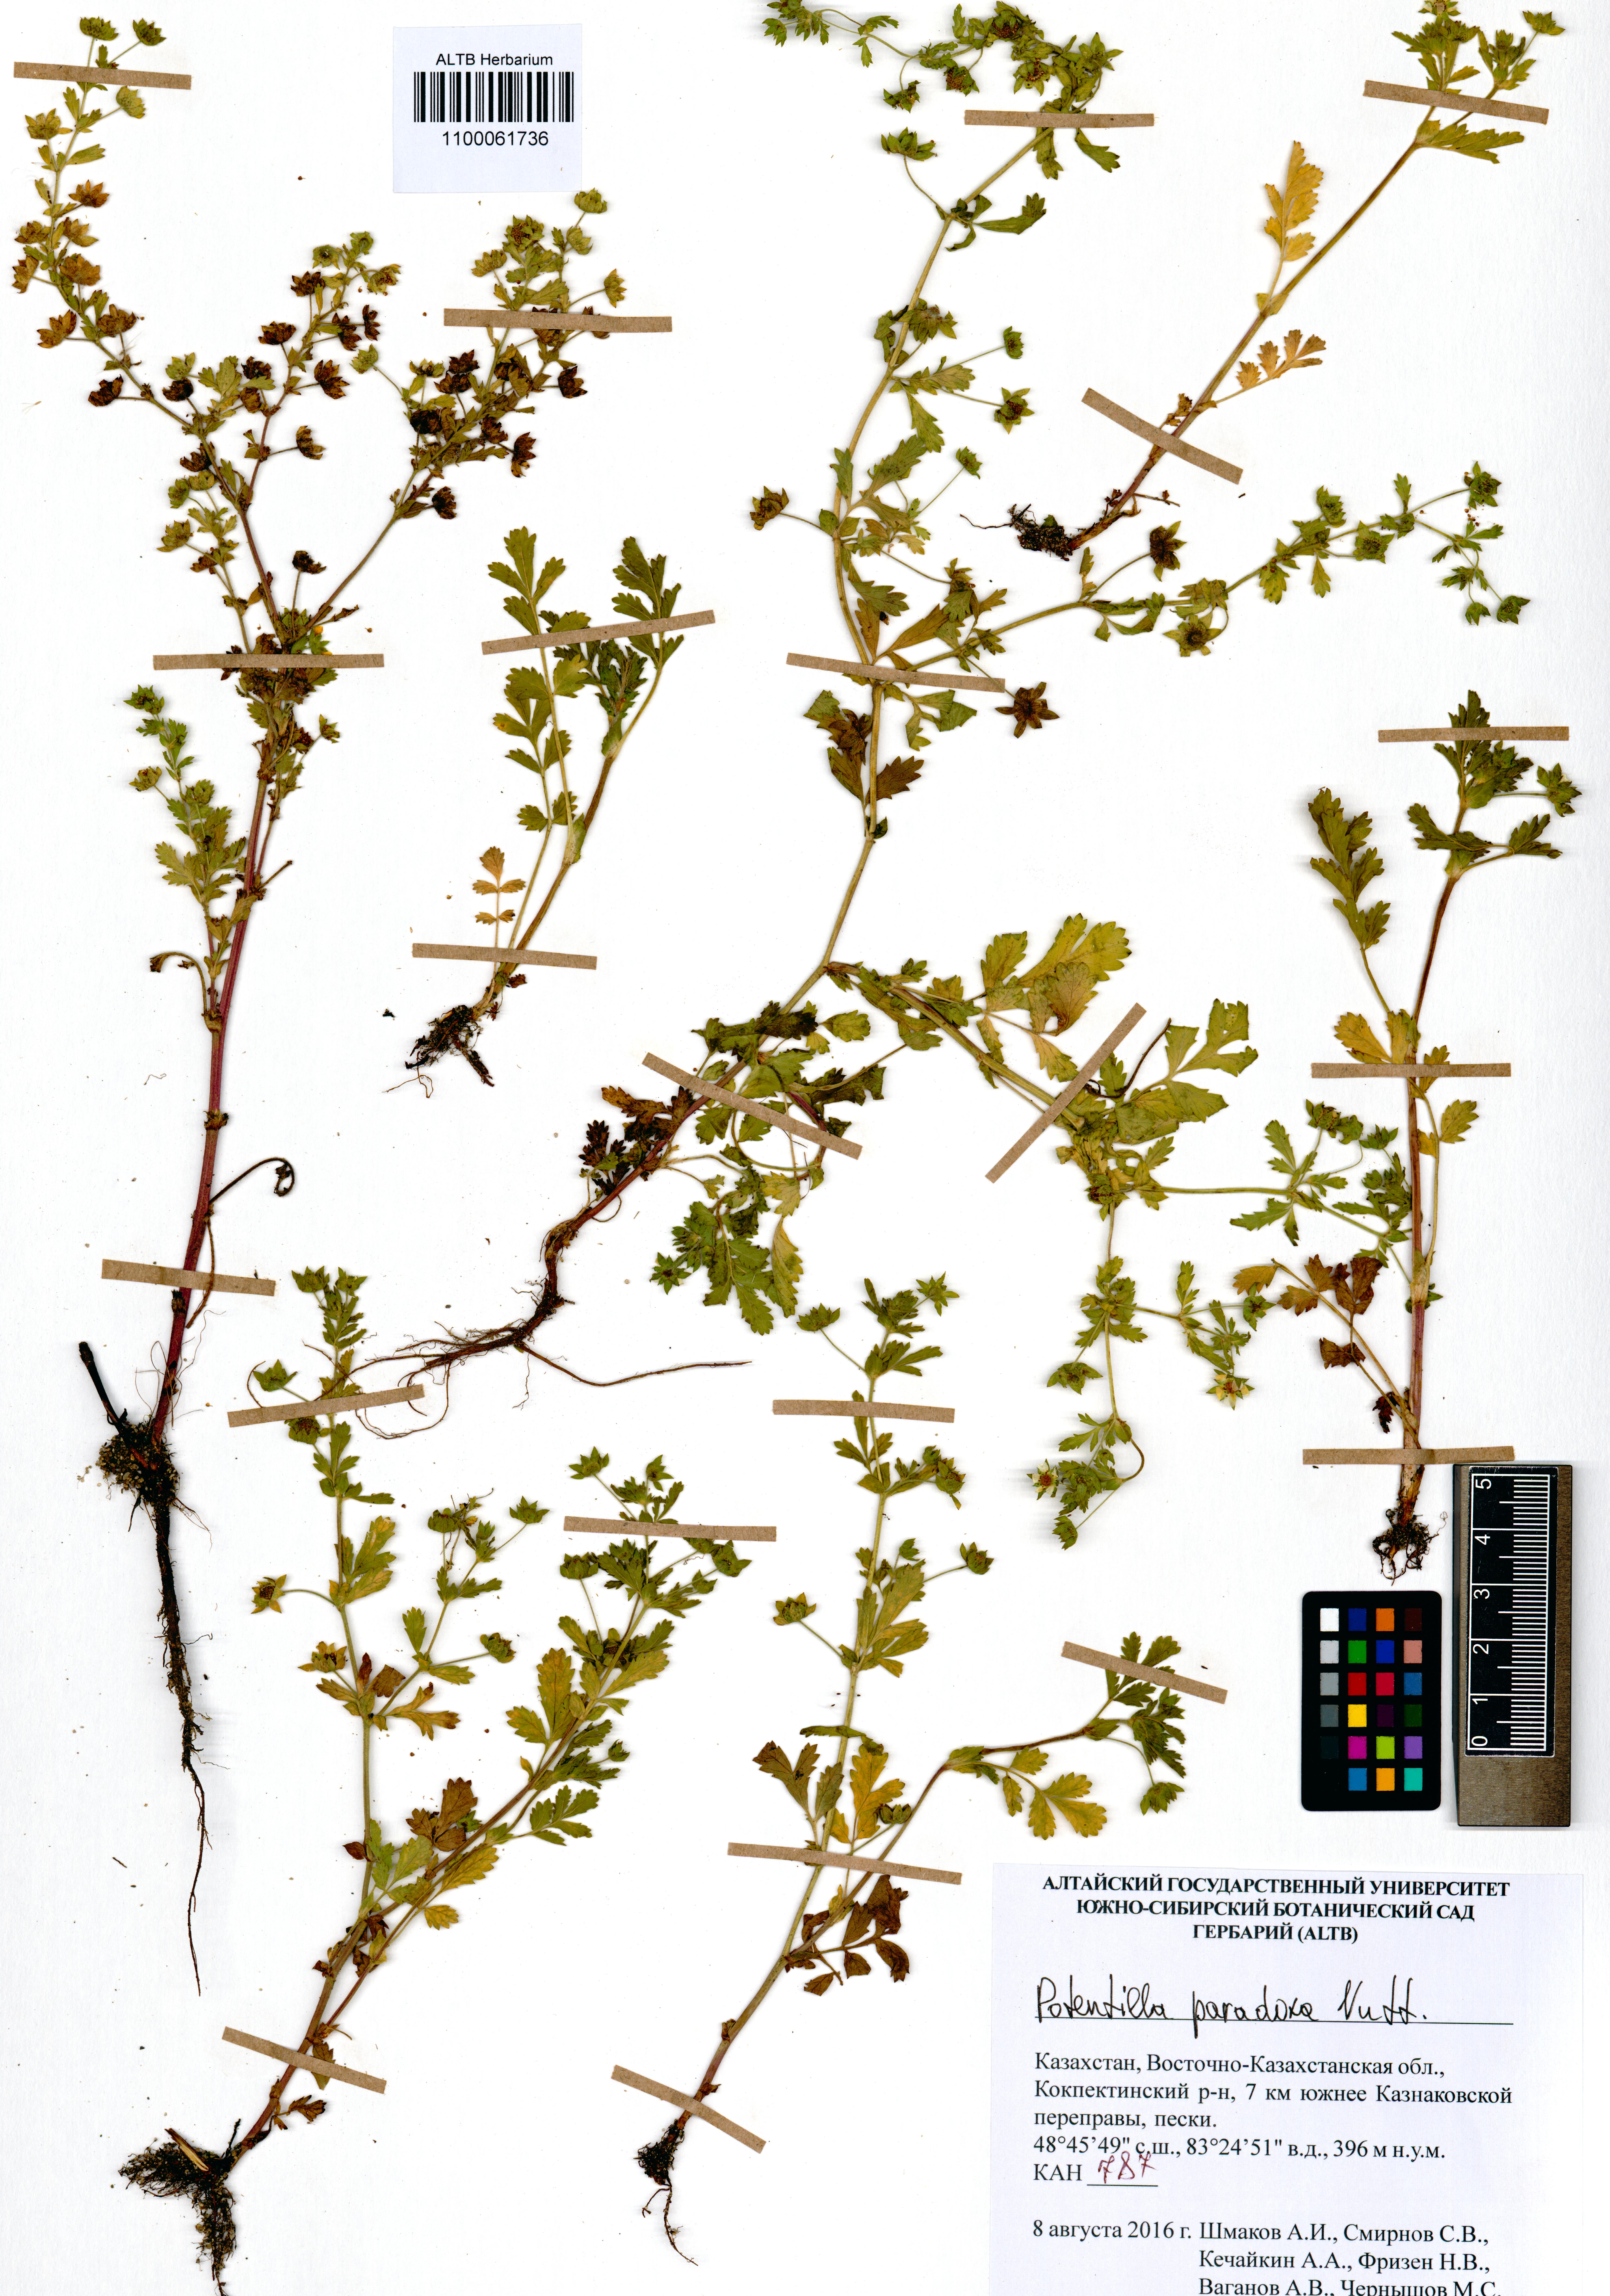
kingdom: Plantae
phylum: Tracheophyta
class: Magnoliopsida
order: Rosales
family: Rosaceae
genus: Potentilla
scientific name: Potentilla supina
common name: Prostrate cinquefoil
